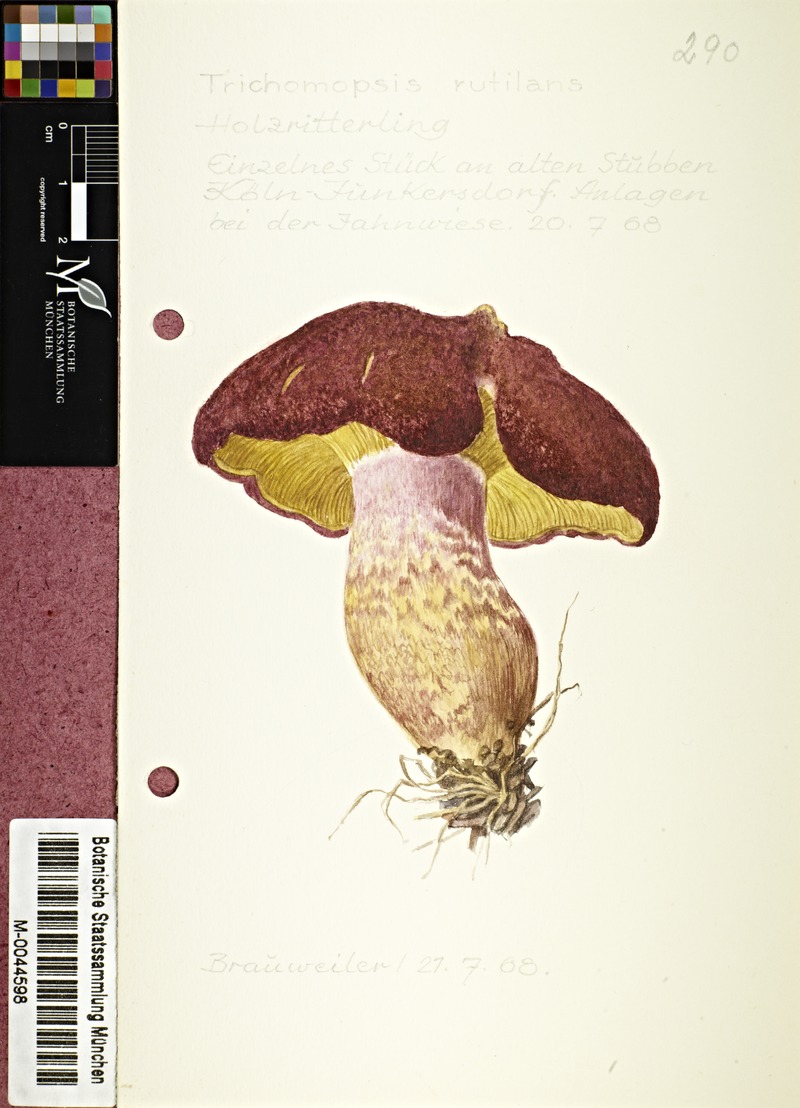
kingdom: Fungi
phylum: Basidiomycota
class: Agaricomycetes
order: Agaricales
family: Tricholomataceae
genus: Tricholomopsis
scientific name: Tricholomopsis rutilans
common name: Plums and custard
